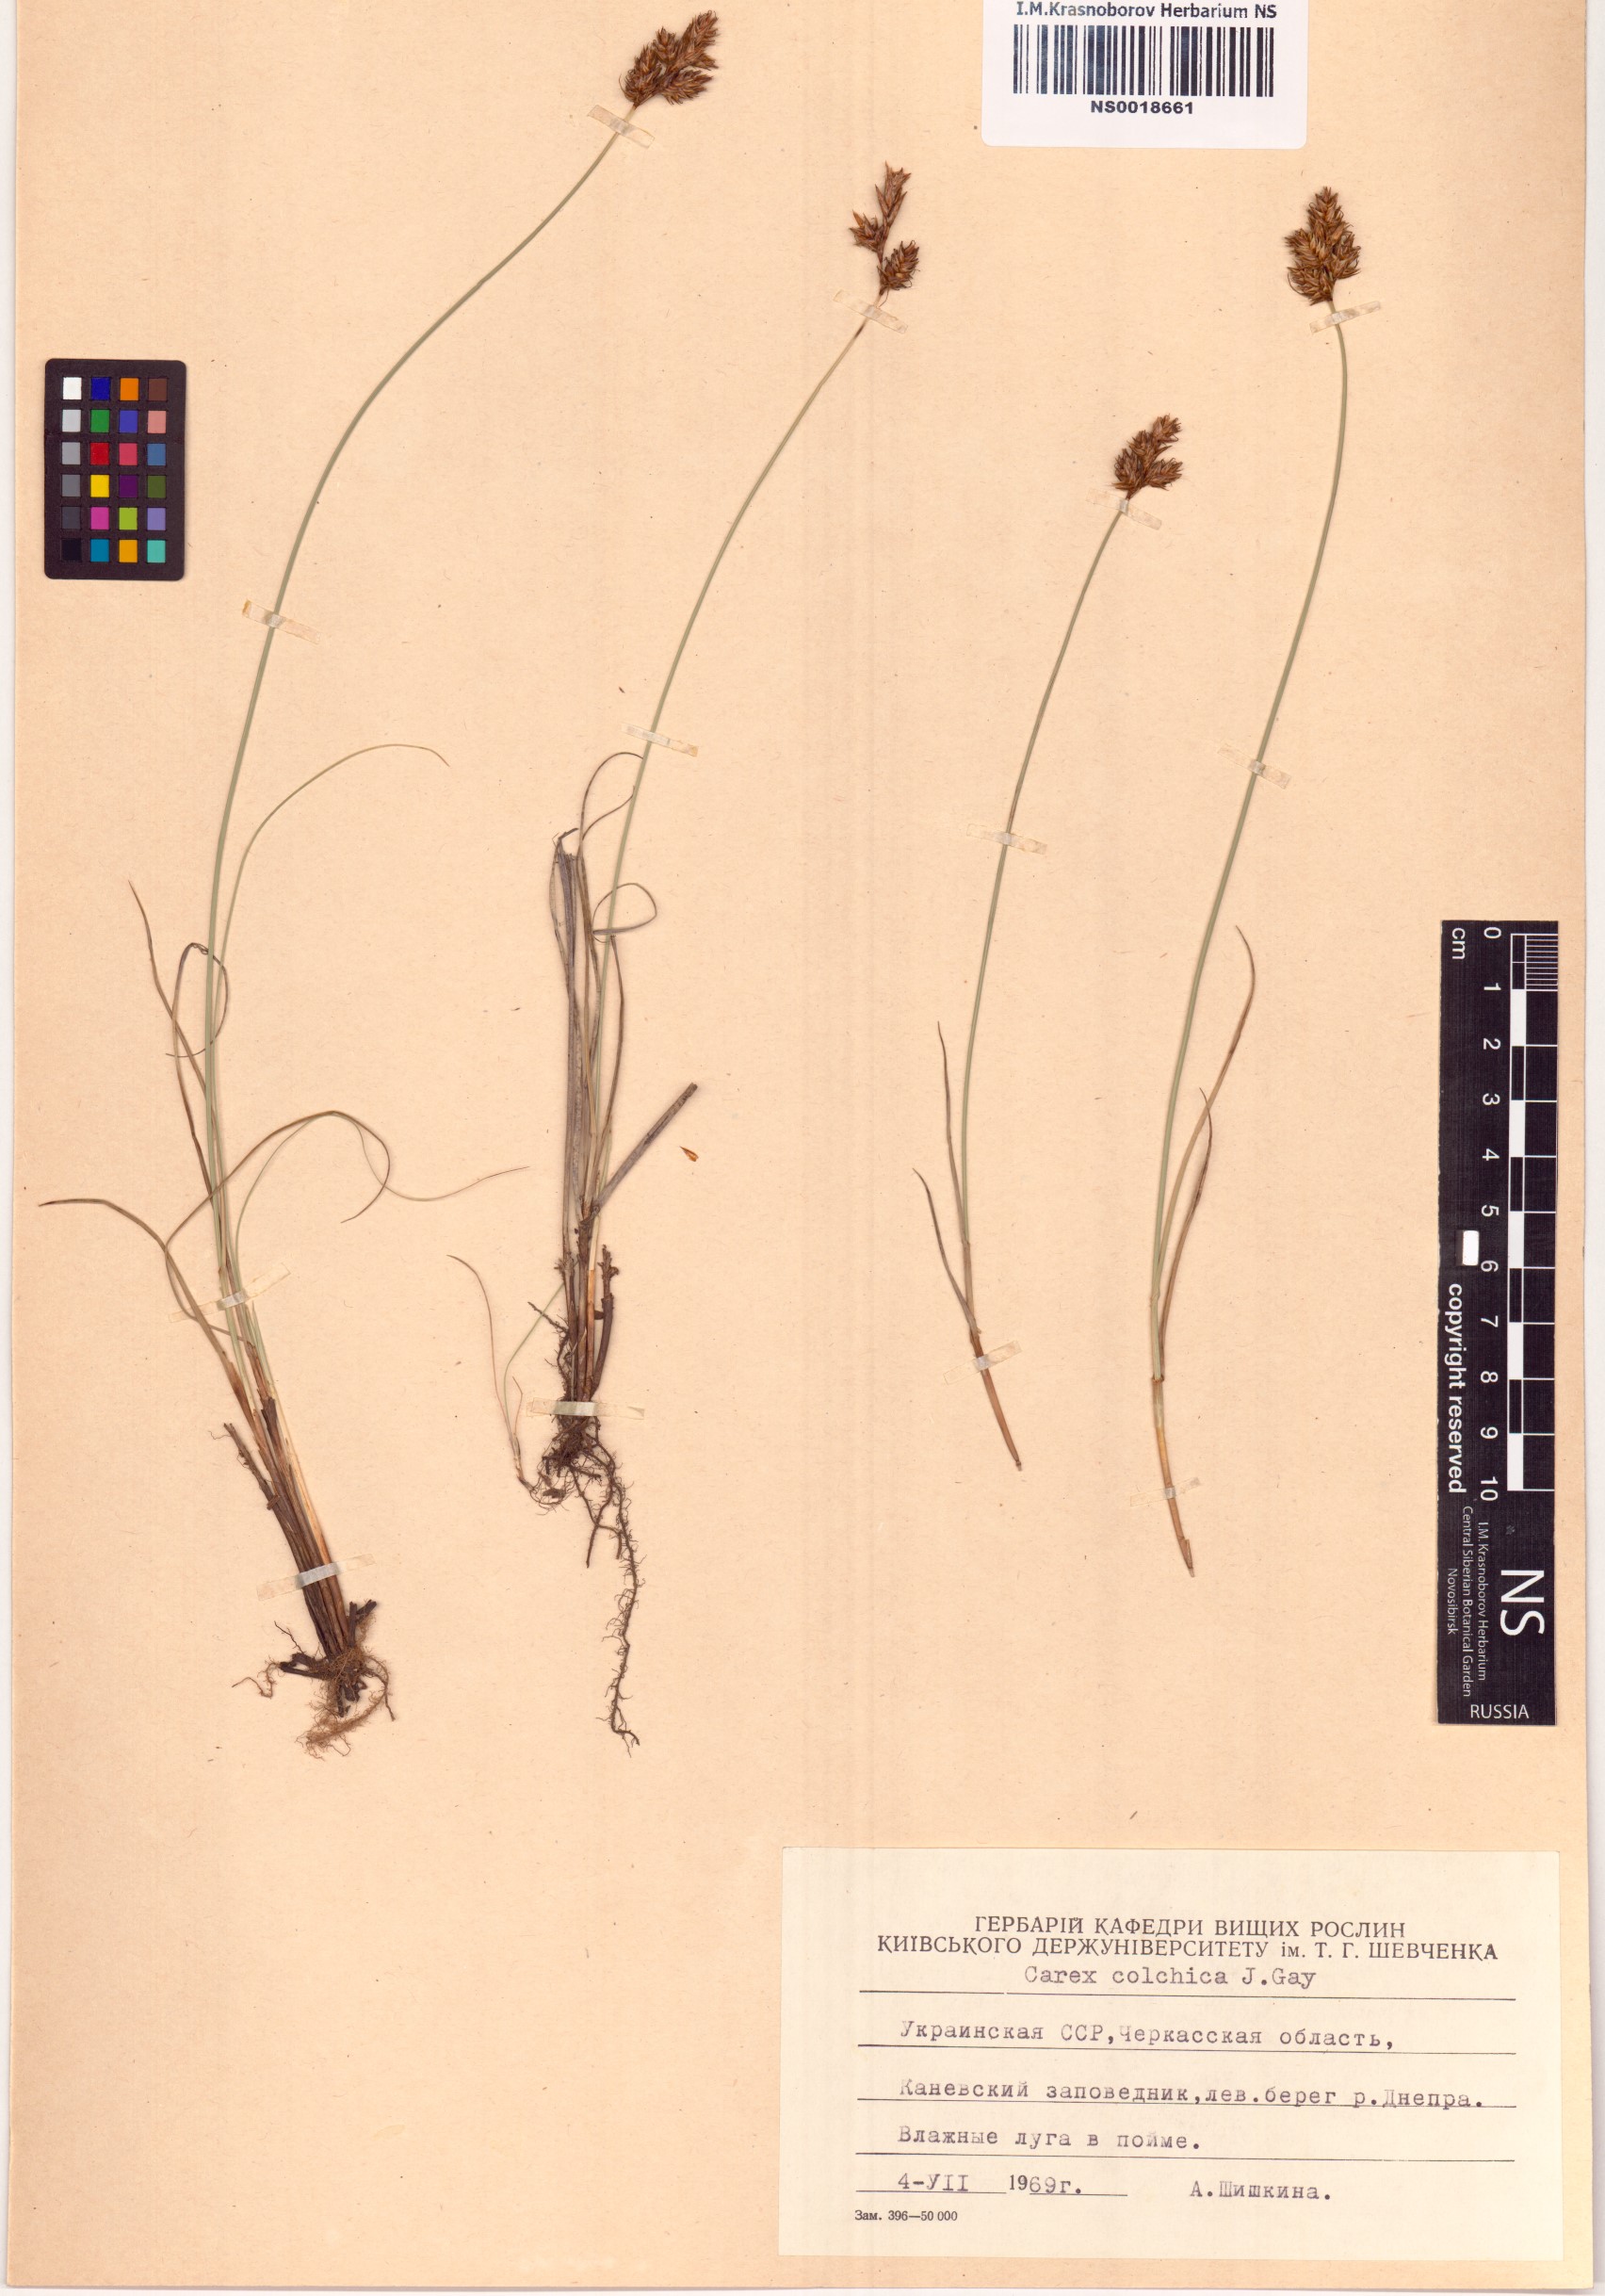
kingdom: Plantae
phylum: Tracheophyta
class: Liliopsida
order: Poales
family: Cyperaceae
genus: Carex
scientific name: Carex colchica
